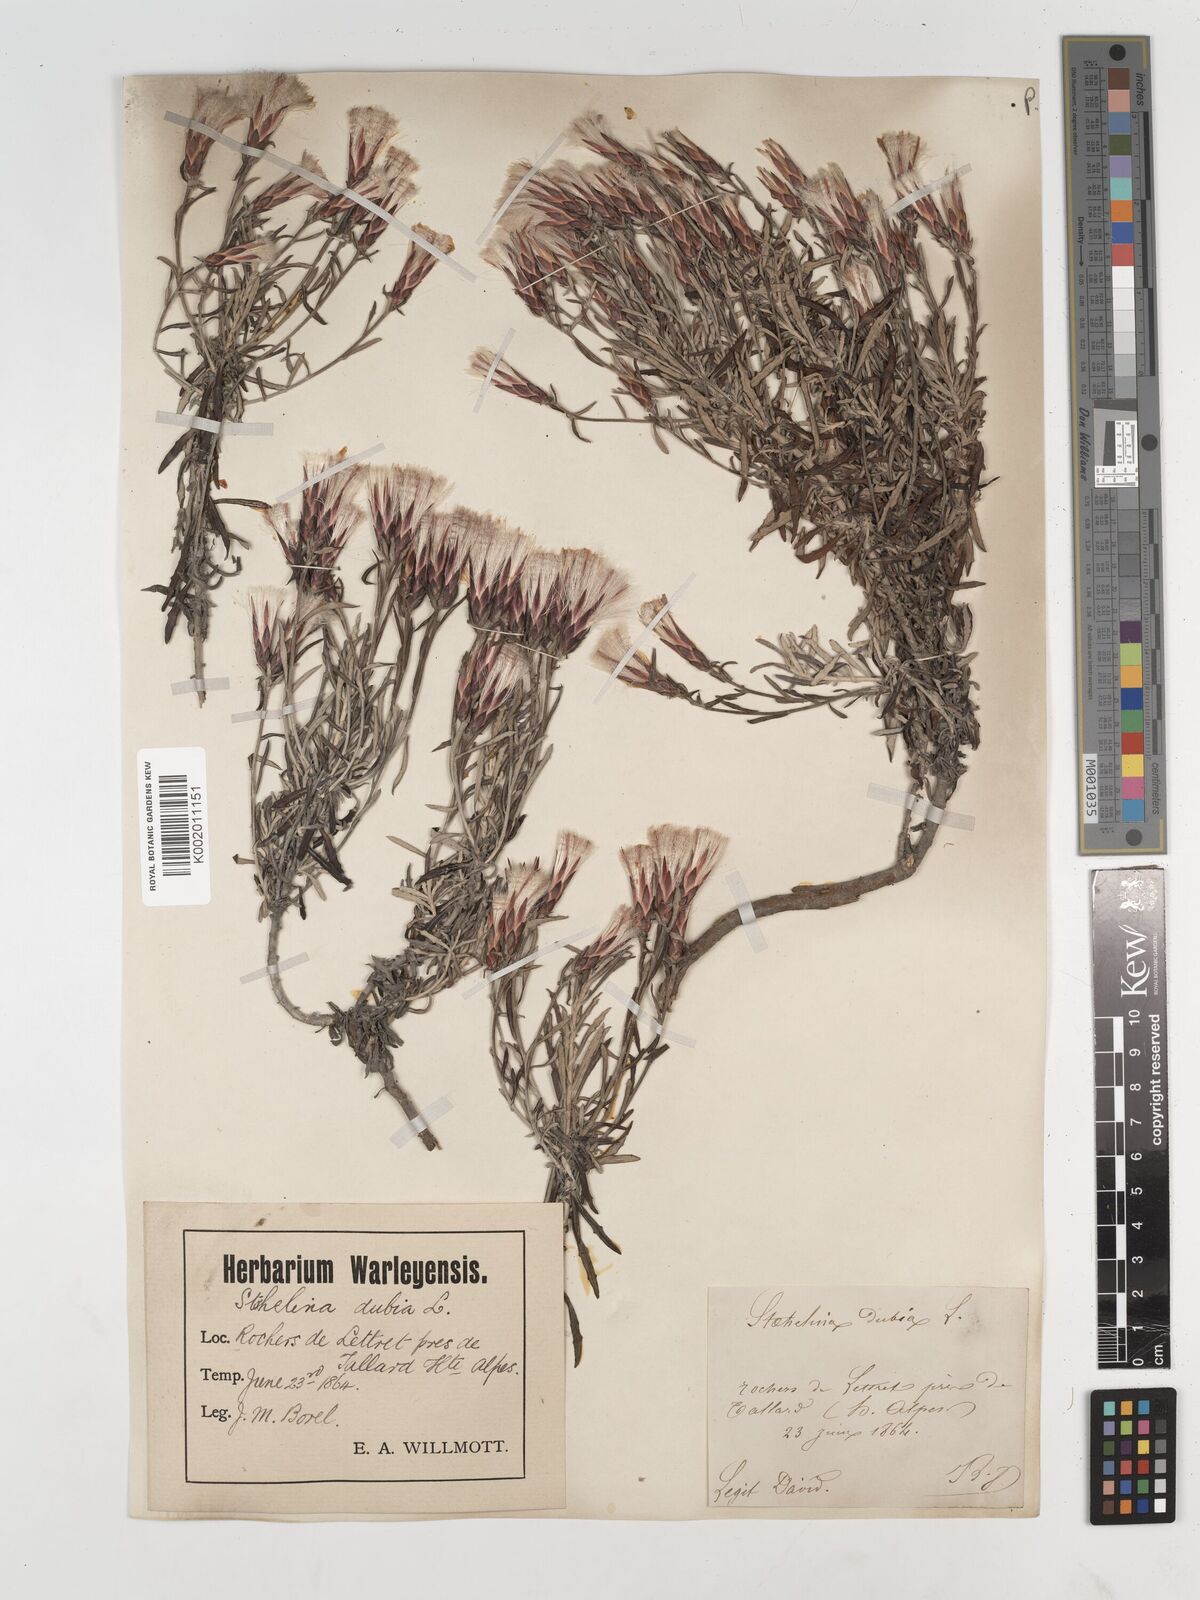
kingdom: Plantae
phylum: Tracheophyta
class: Magnoliopsida
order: Asterales
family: Asteraceae
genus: Staehelina
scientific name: Staehelina dubia
